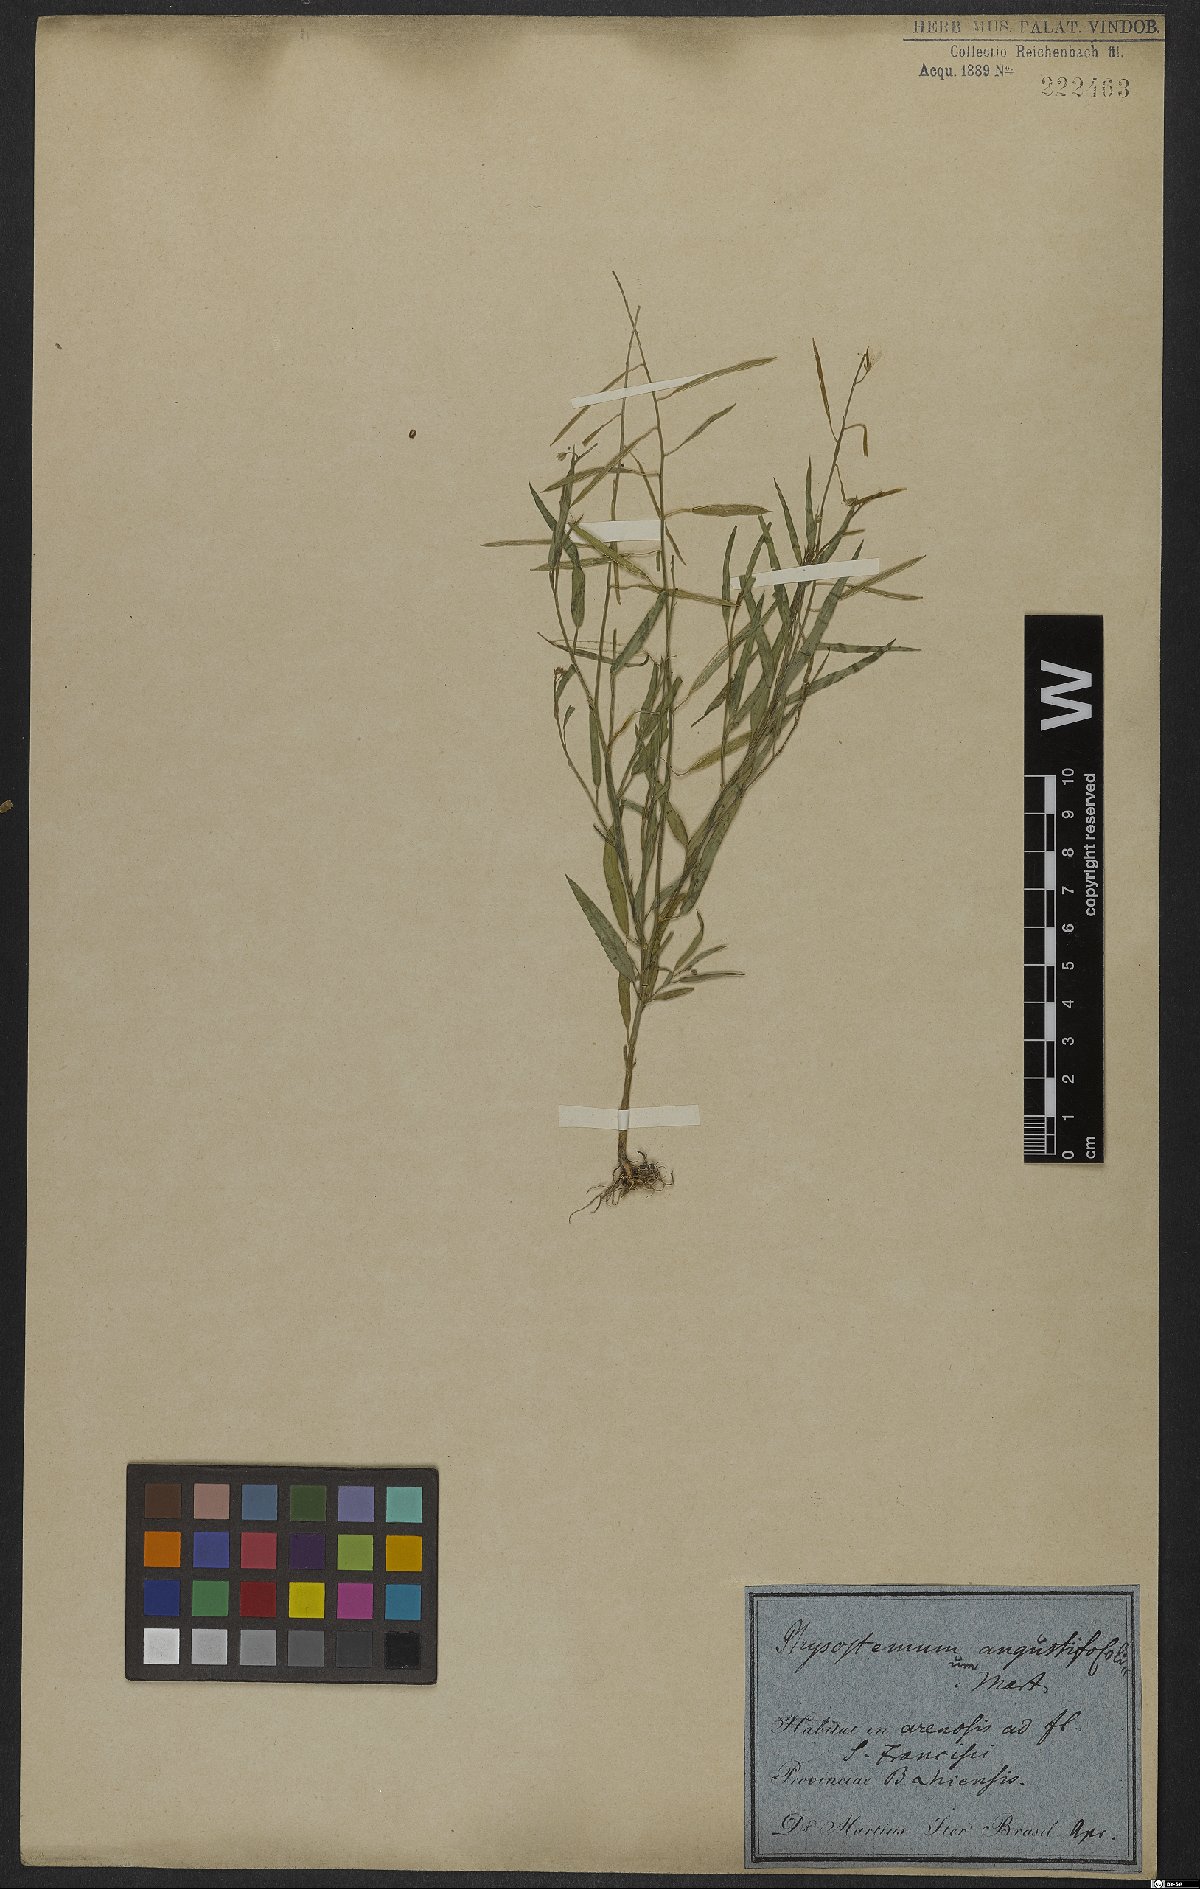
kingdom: Plantae
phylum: Tracheophyta
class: Magnoliopsida
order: Brassicales
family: Cleomaceae
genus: Coalisina
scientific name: Coalisina angustifolia
